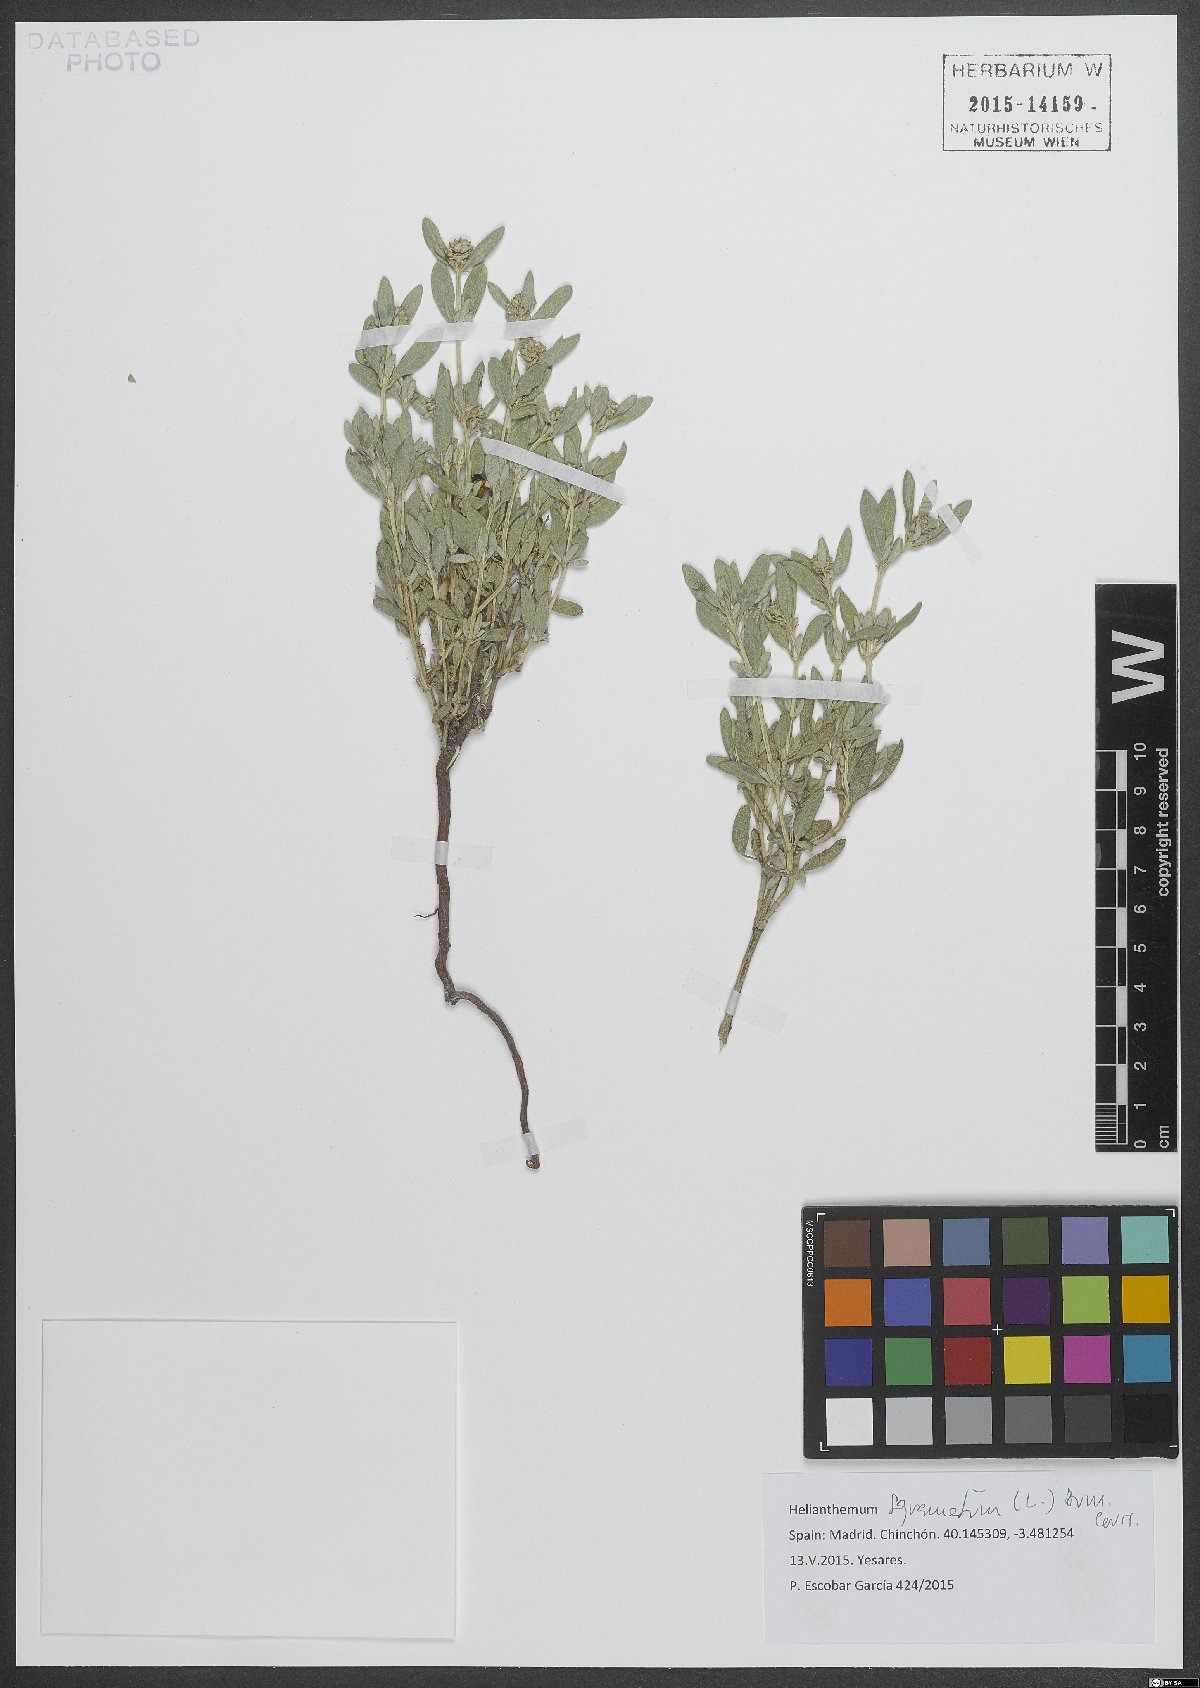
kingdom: Plantae
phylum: Tracheophyta
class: Magnoliopsida
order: Malvales
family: Cistaceae
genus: Helianthemum
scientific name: Helianthemum squamatum
